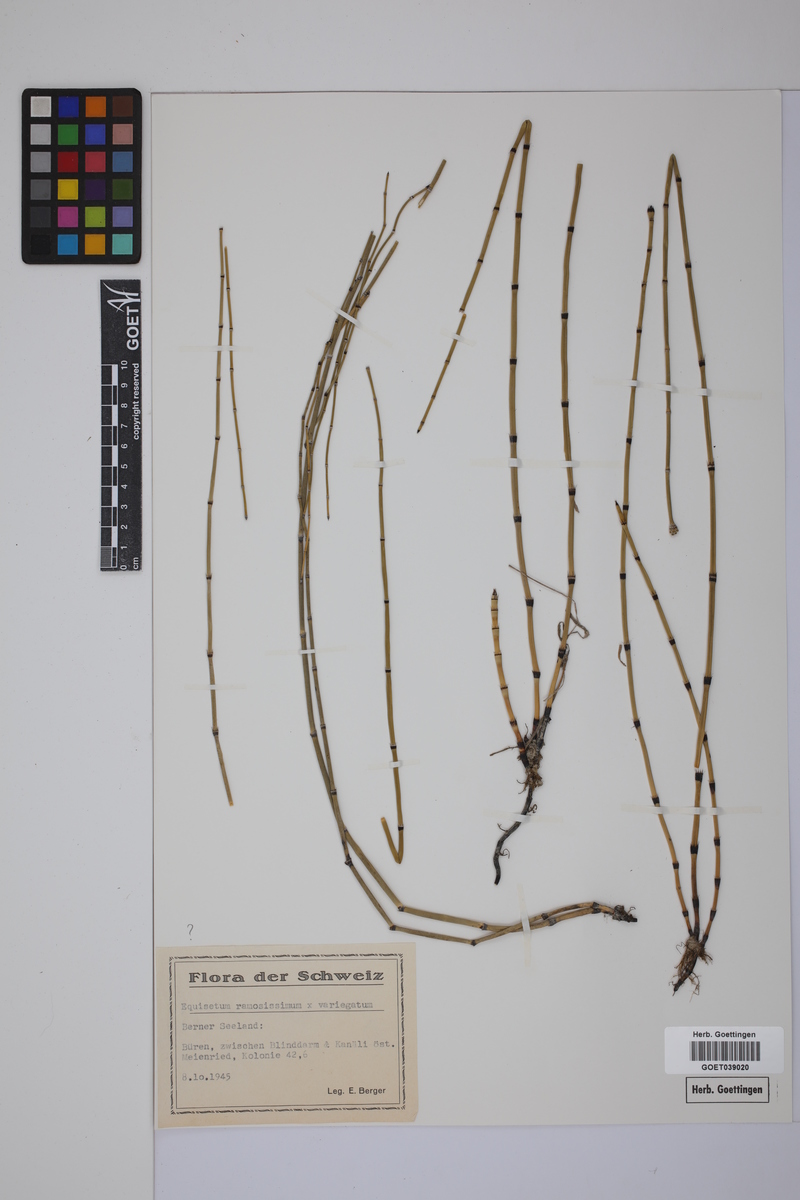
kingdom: Plantae
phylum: Tracheophyta
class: Polypodiopsida
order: Equisetales
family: Equisetaceae
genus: Equisetum
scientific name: Equisetum giganteum
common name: Giant horsetail
